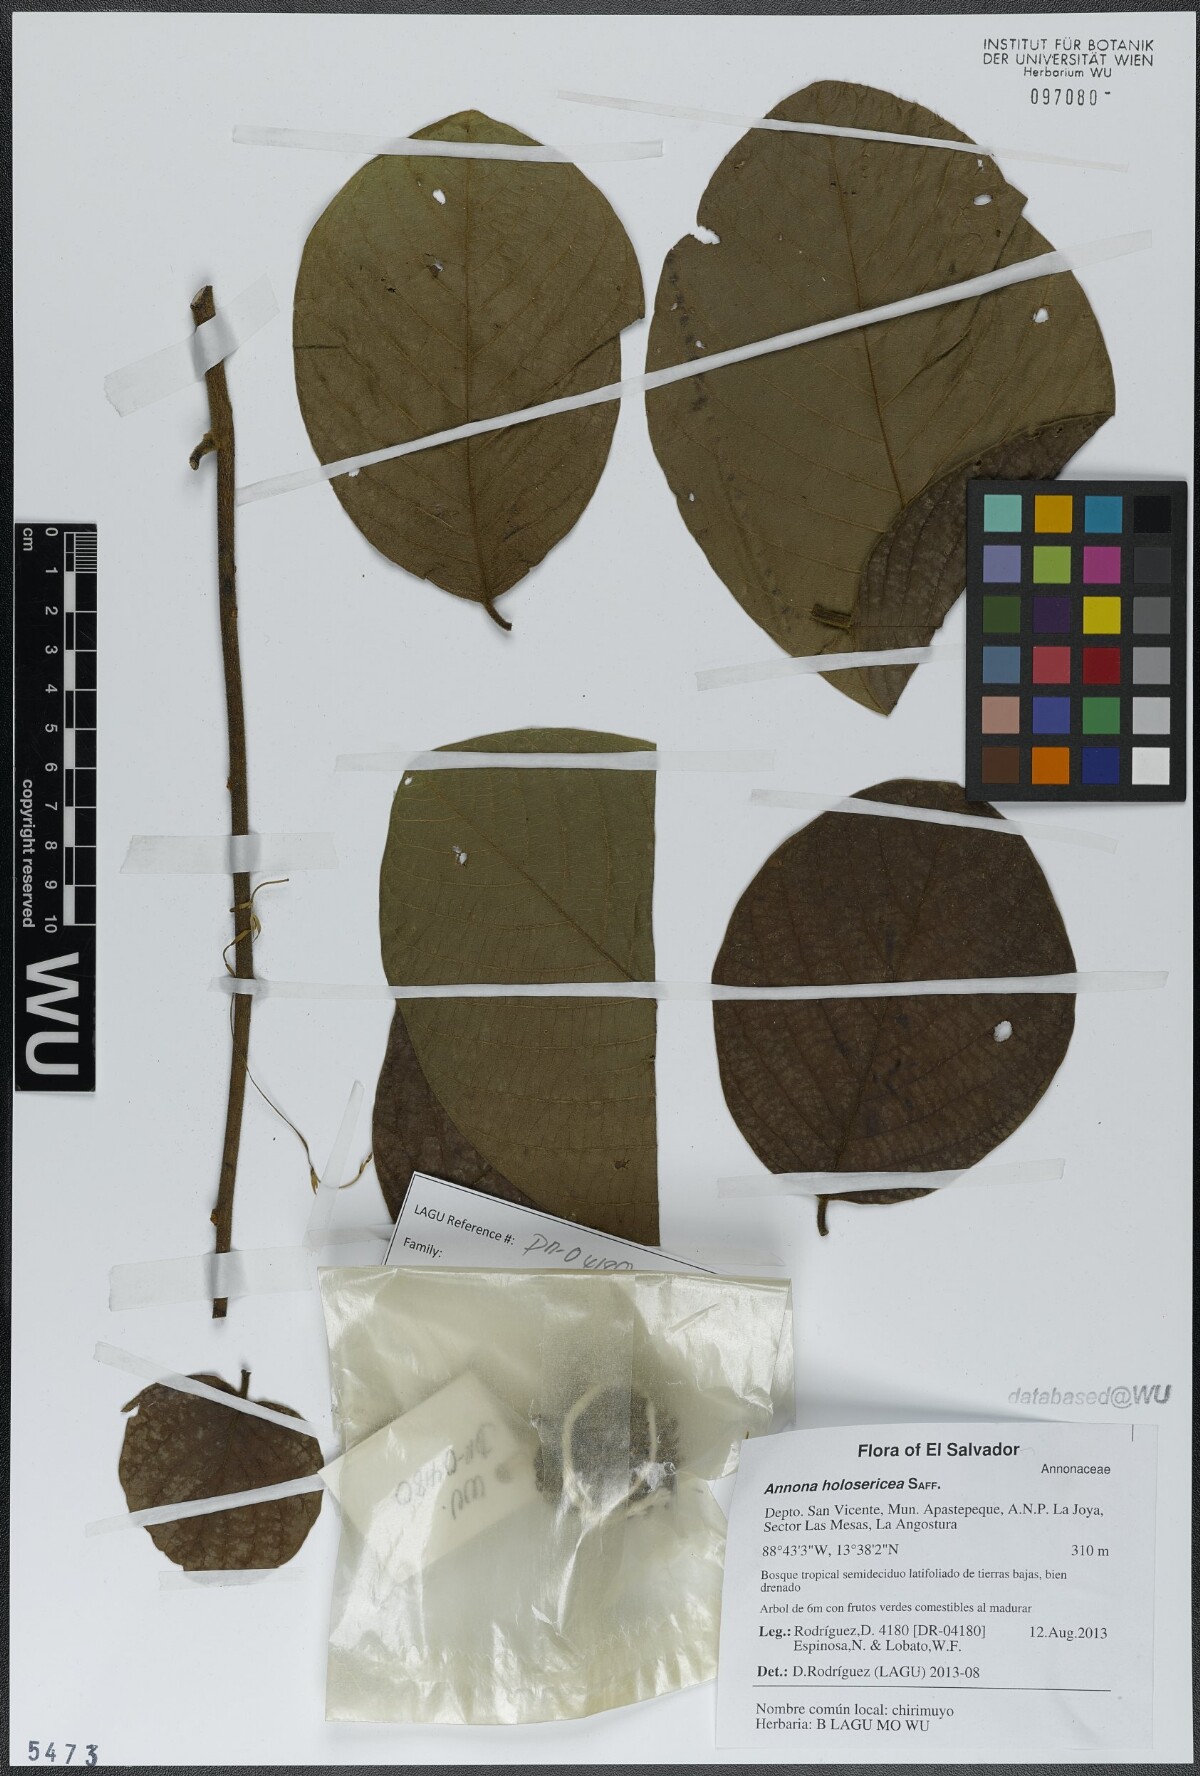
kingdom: Plantae
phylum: Tracheophyta
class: Magnoliopsida
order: Magnoliales
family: Annonaceae
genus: Annona
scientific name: Annona holosericea
